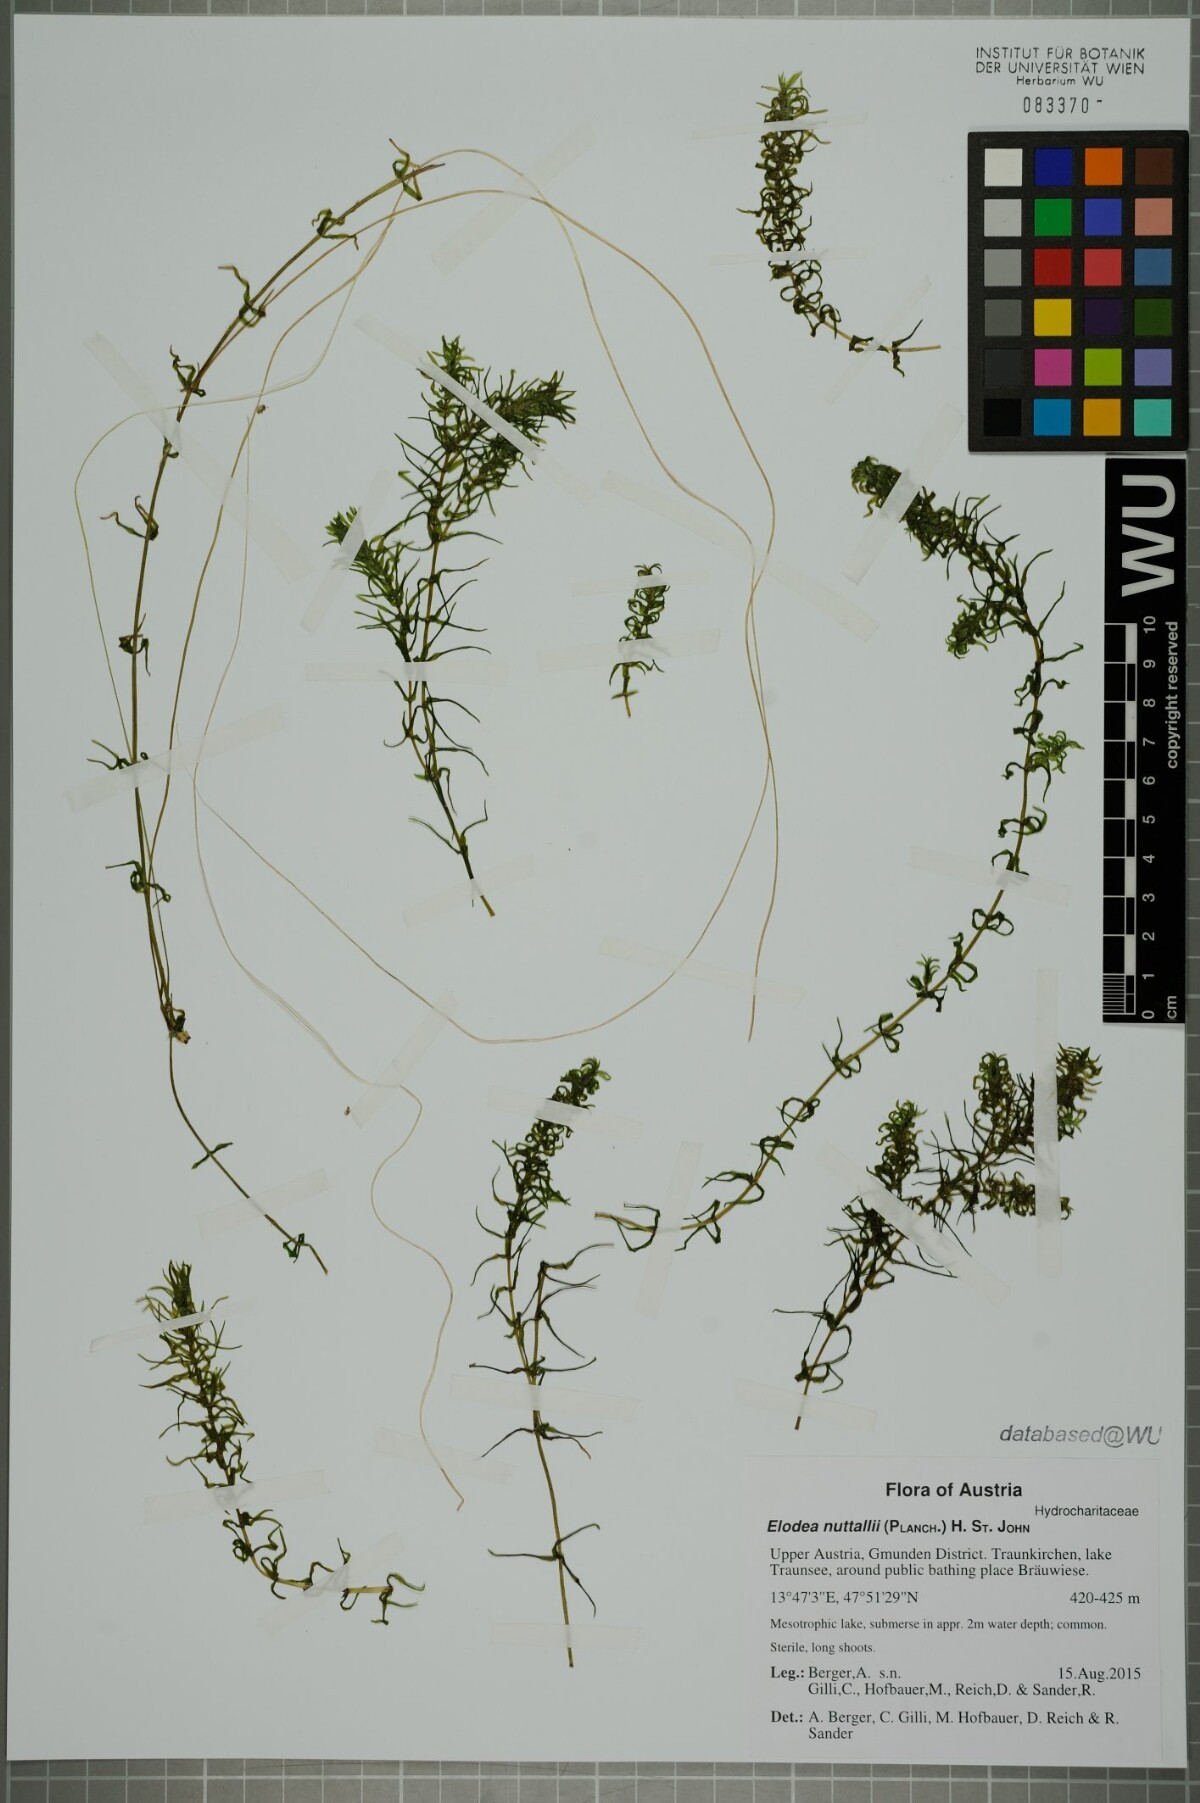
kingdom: Plantae
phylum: Tracheophyta
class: Liliopsida
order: Alismatales
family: Hydrocharitaceae
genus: Elodea
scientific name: Elodea nuttallii
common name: Nuttall's waterweed
